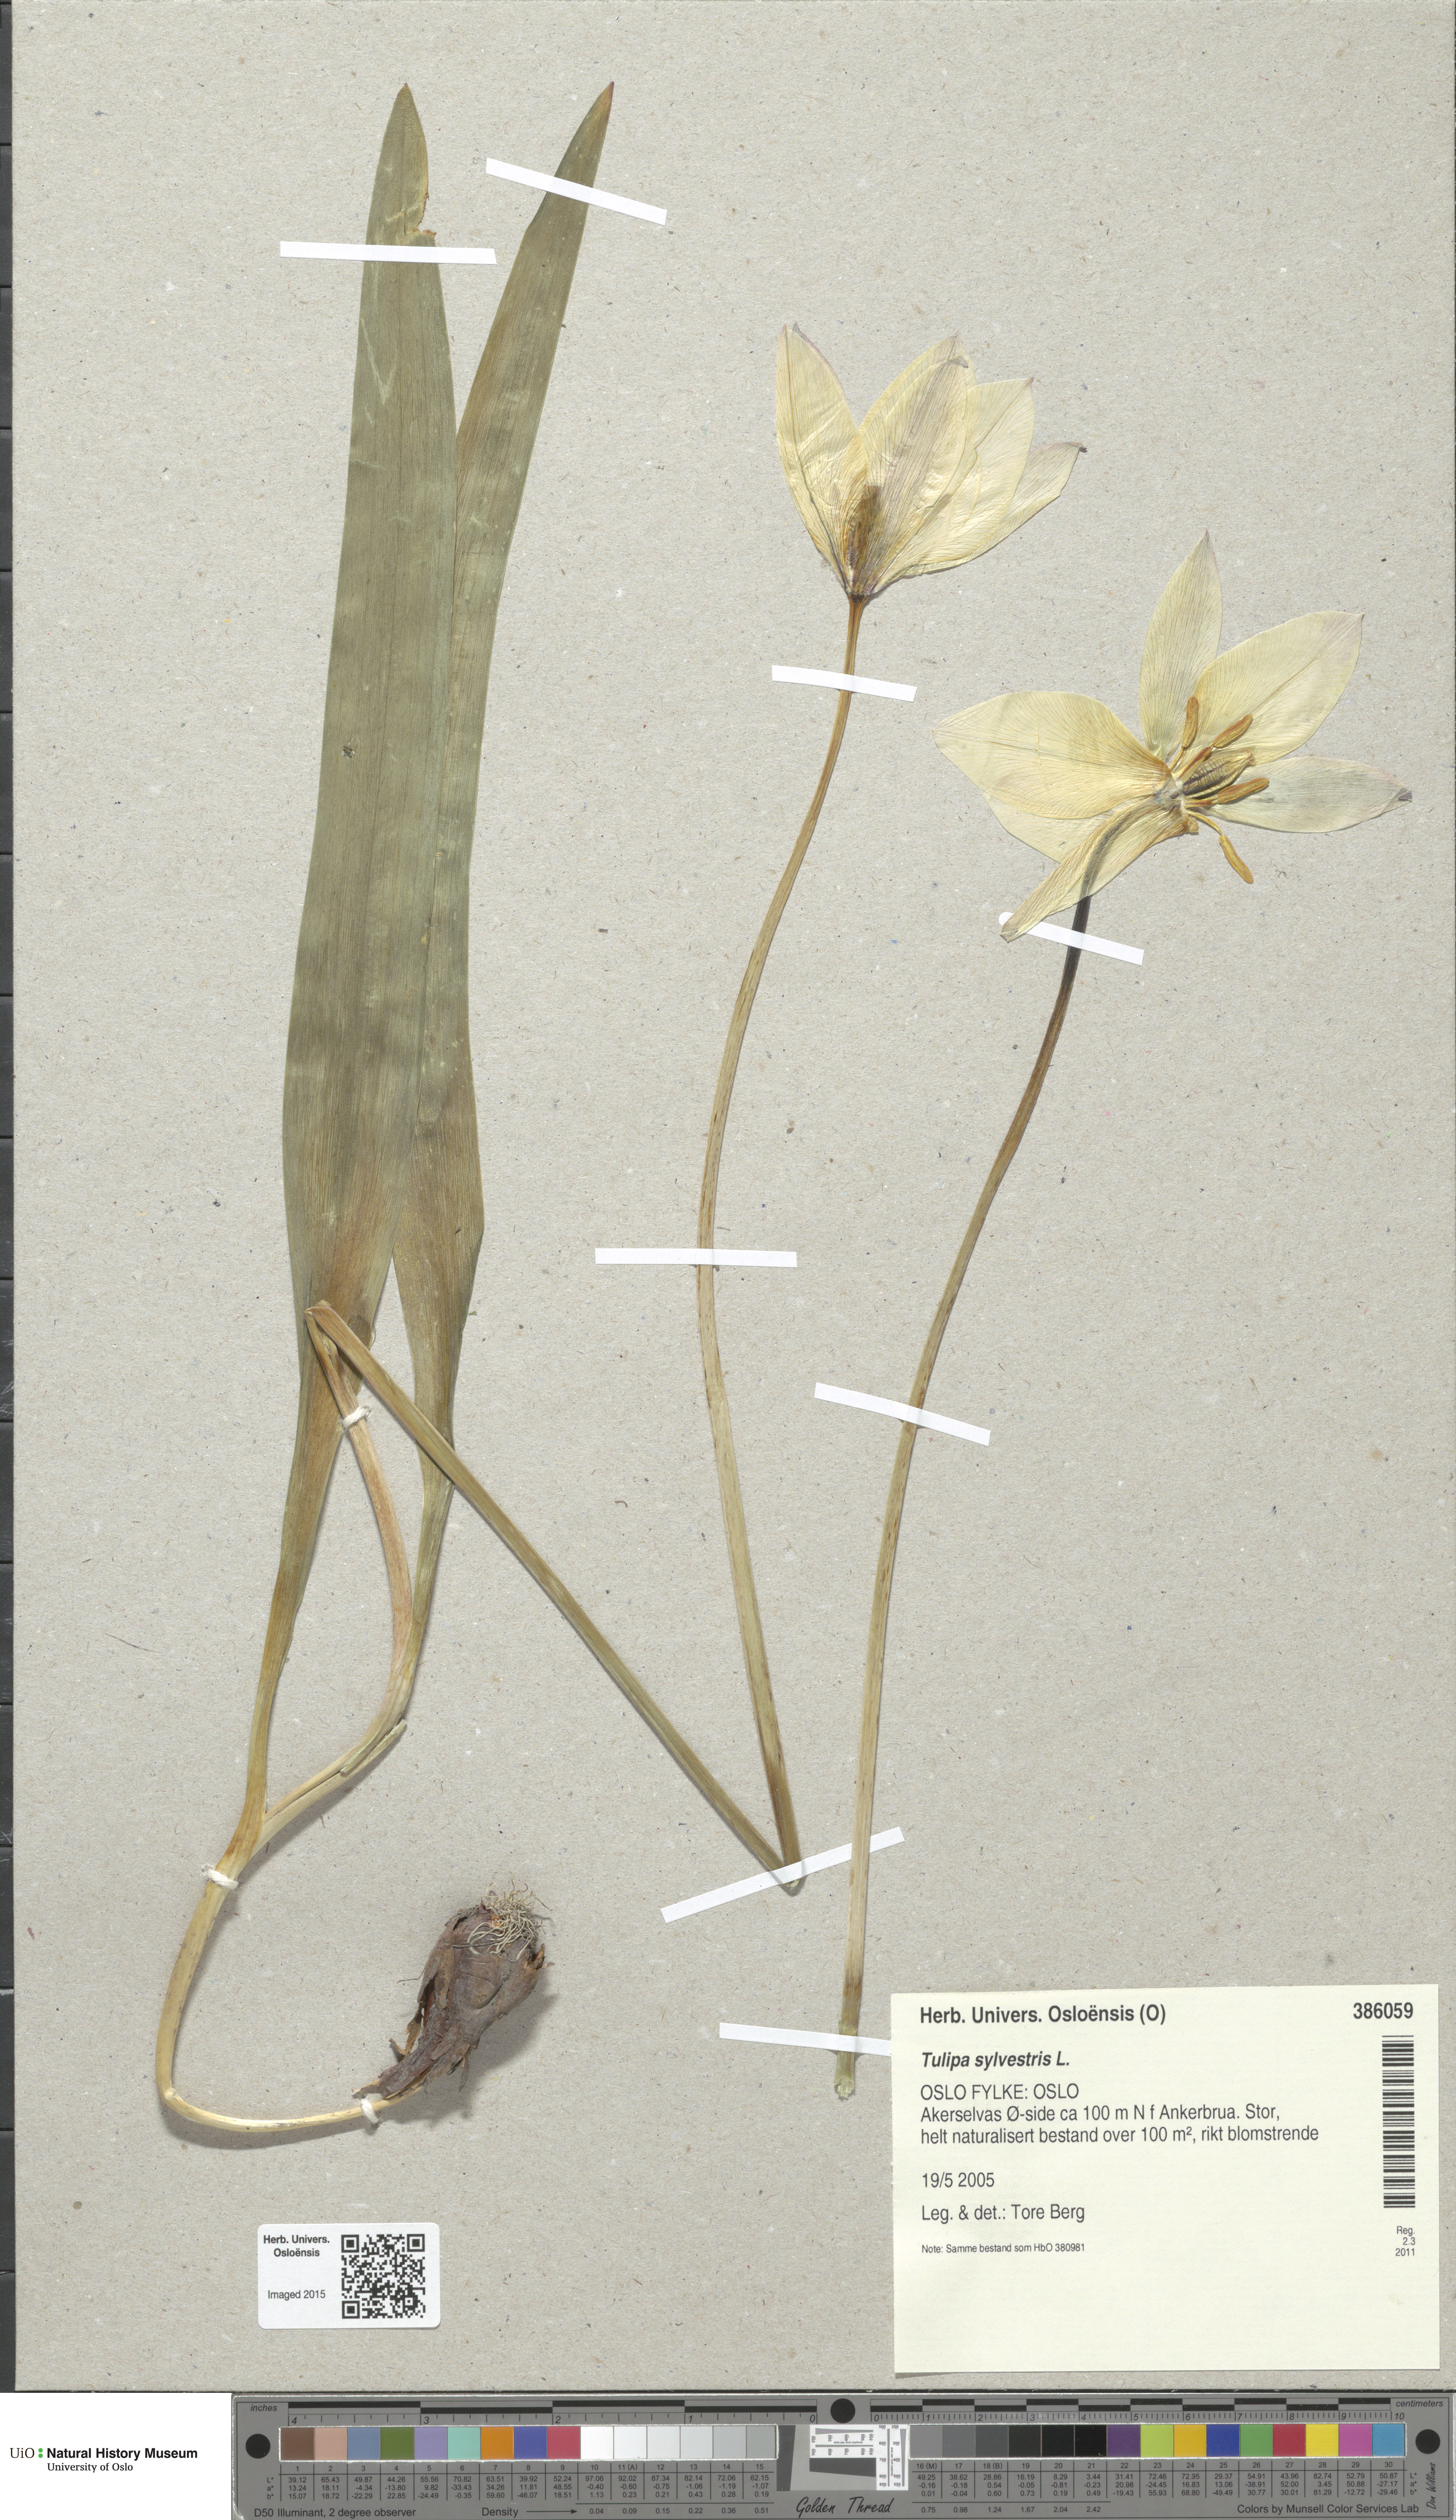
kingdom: Plantae
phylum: Tracheophyta
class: Liliopsida
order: Liliales
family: Liliaceae
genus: Tulipa
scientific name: Tulipa sylvestris
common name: Wild tulip
